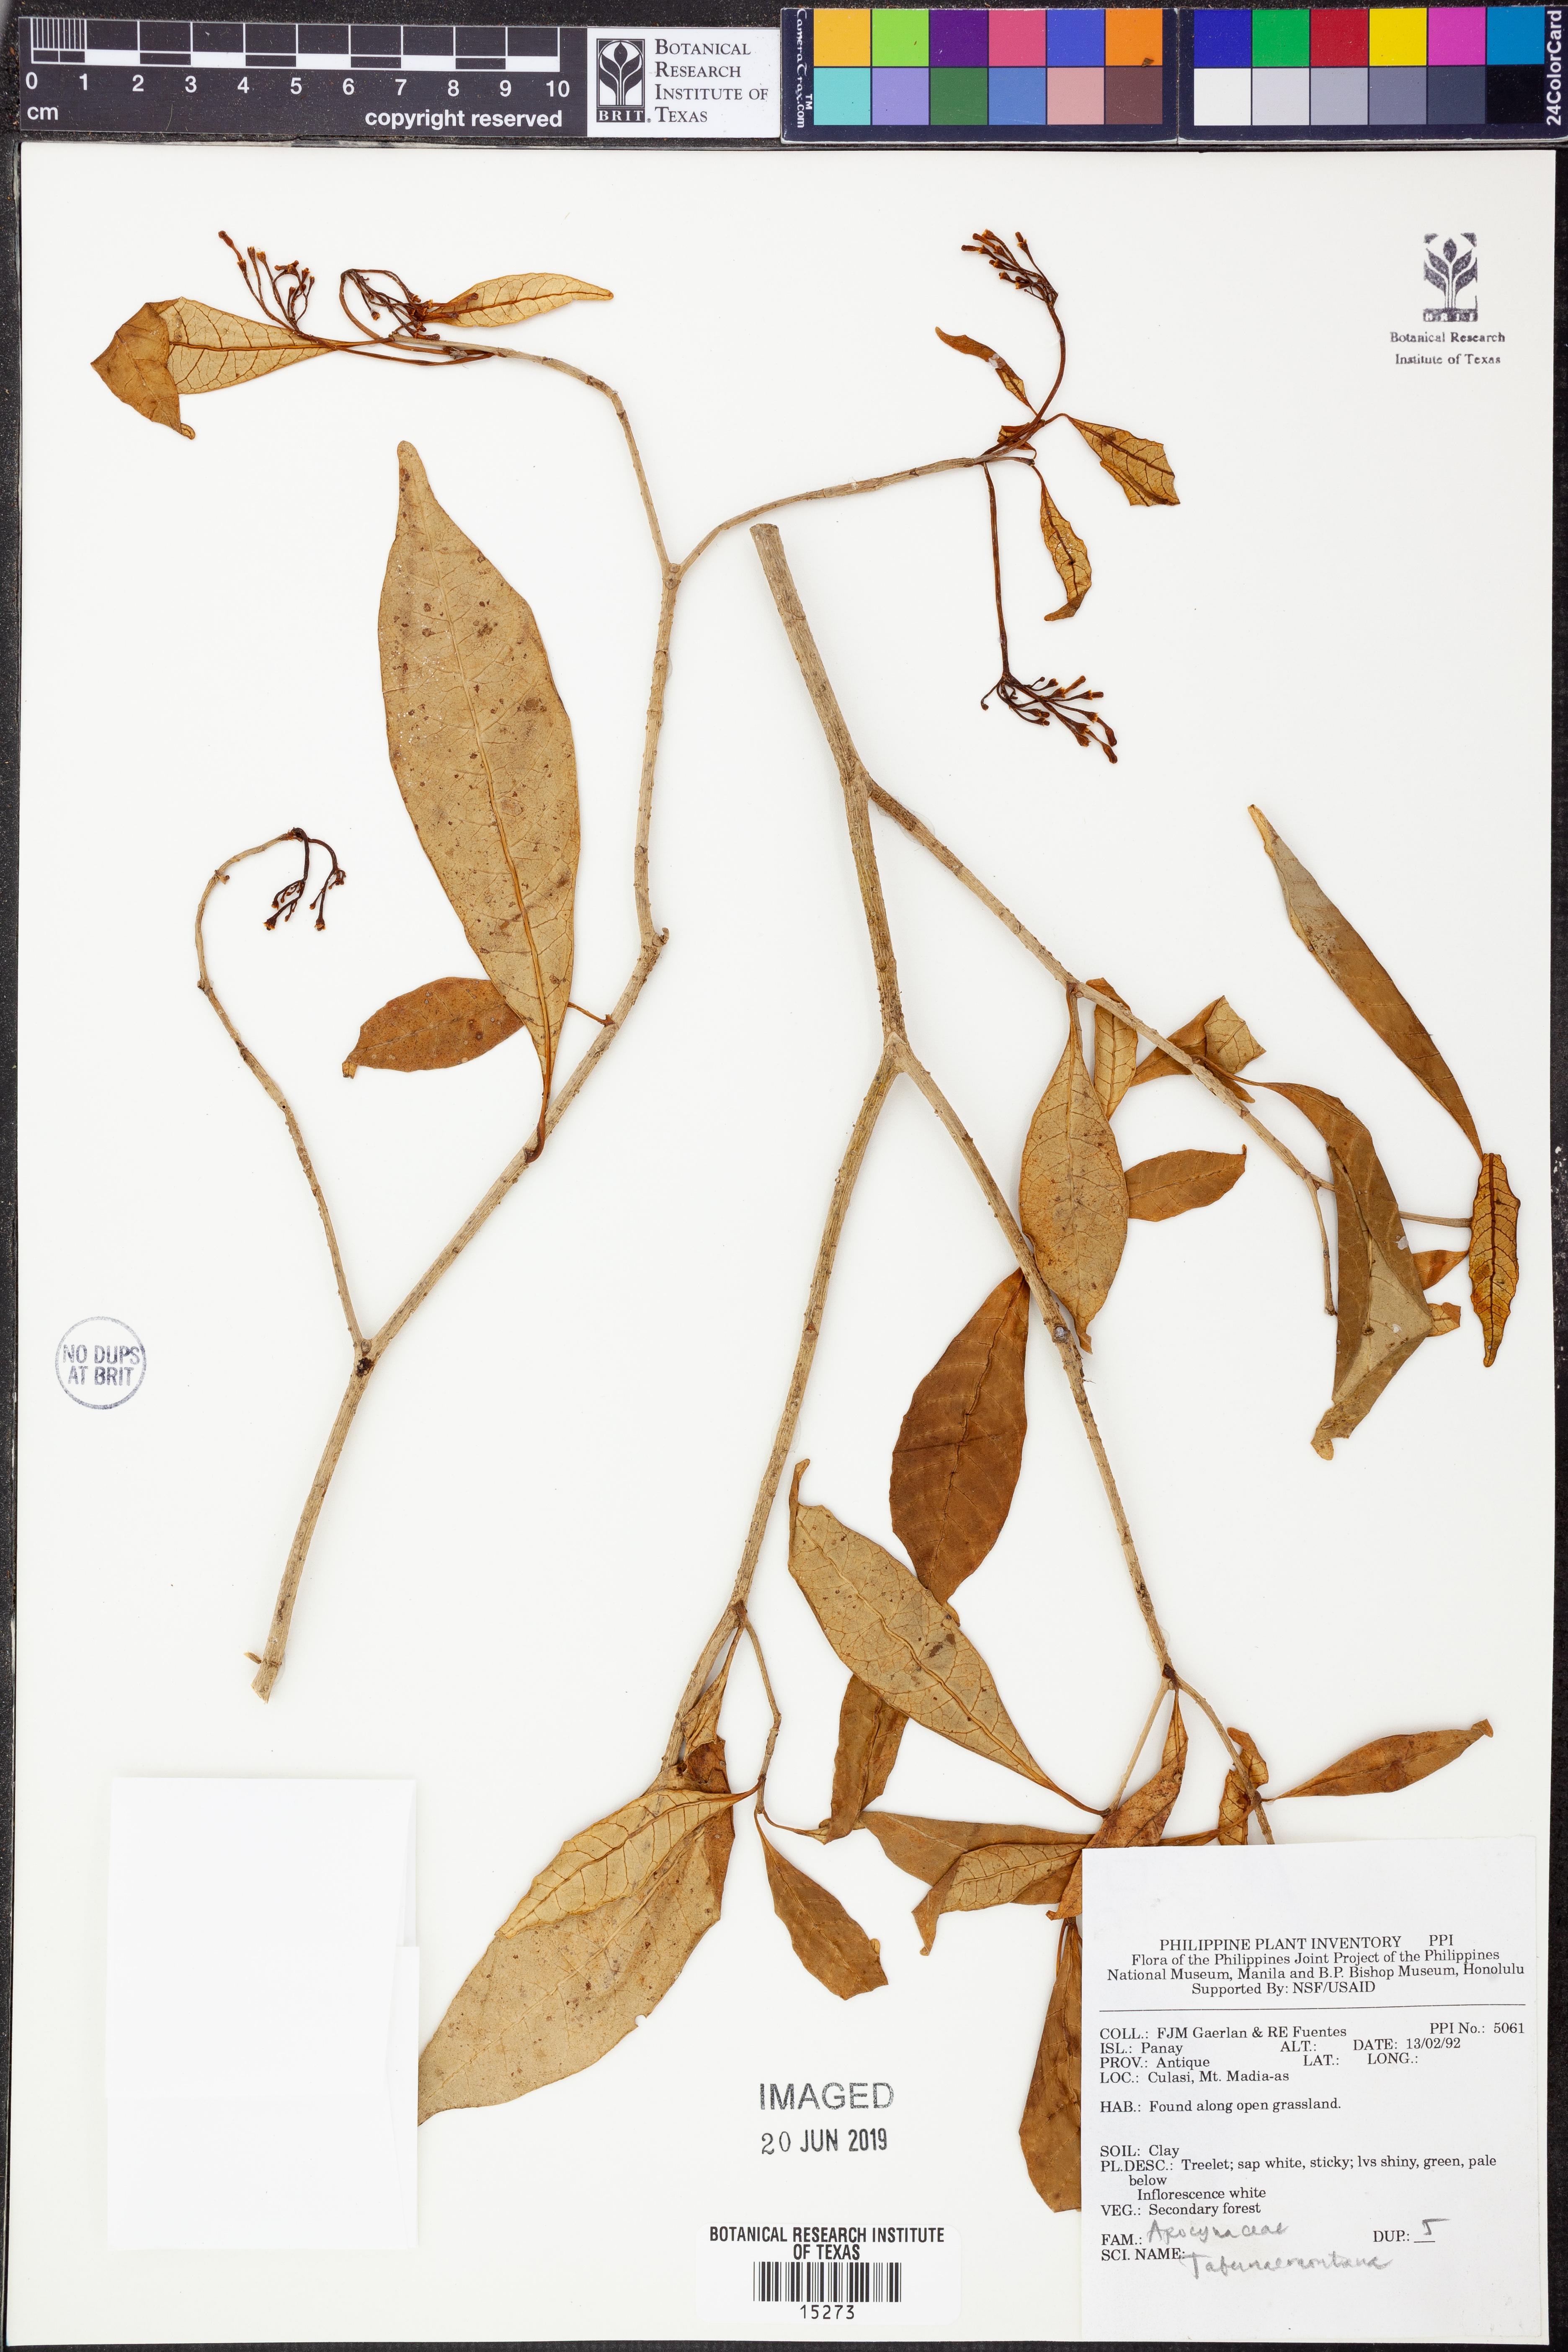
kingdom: Plantae
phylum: Tracheophyta
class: Magnoliopsida
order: Gentianales
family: Apocynaceae
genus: Tabernaemontana
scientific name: Tabernaemontana
